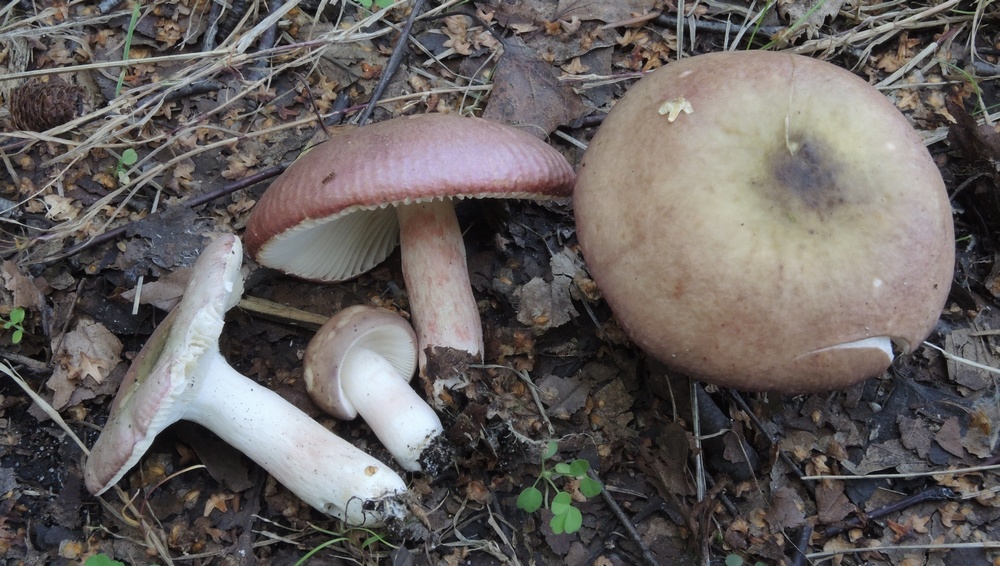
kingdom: Fungi
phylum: Basidiomycota
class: Agaricomycetes
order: Russulales
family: Russulaceae
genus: Russula
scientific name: Russula gracillima
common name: slank skørhat
